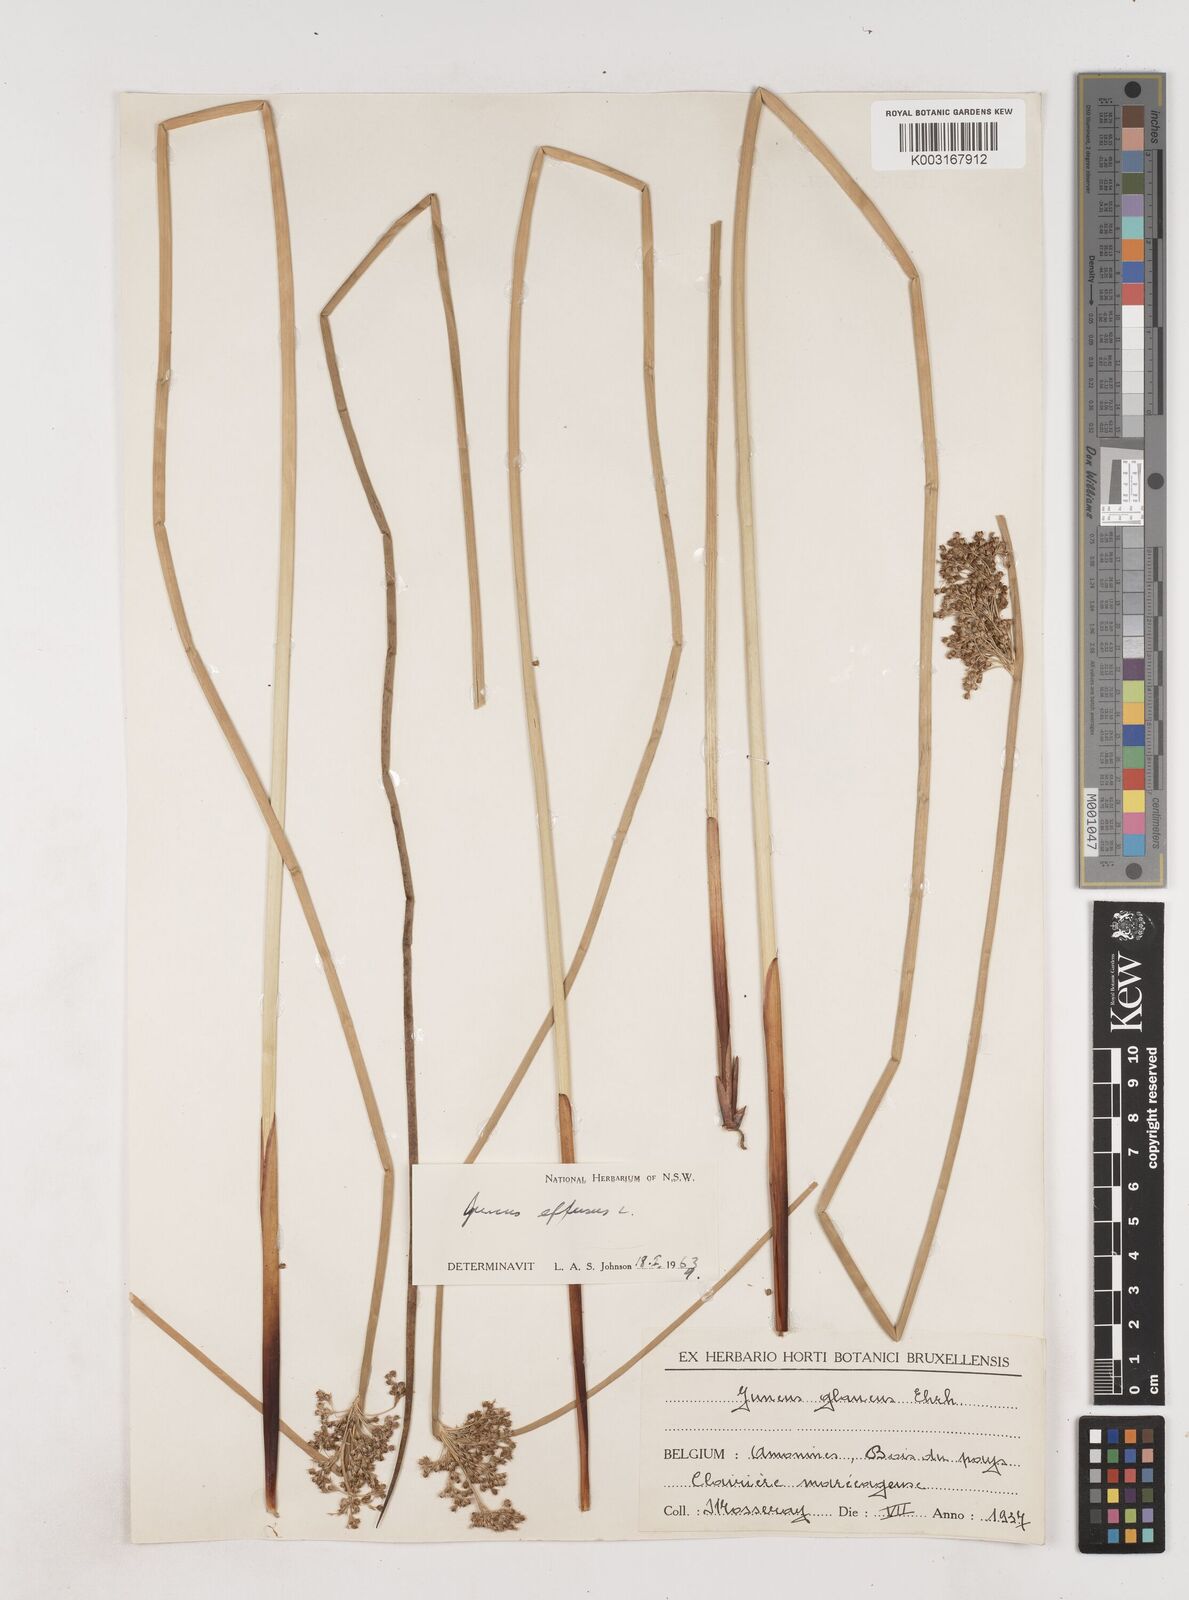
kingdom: Plantae
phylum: Tracheophyta
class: Liliopsida
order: Poales
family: Juncaceae
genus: Juncus
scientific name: Juncus effusus
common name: Soft rush
